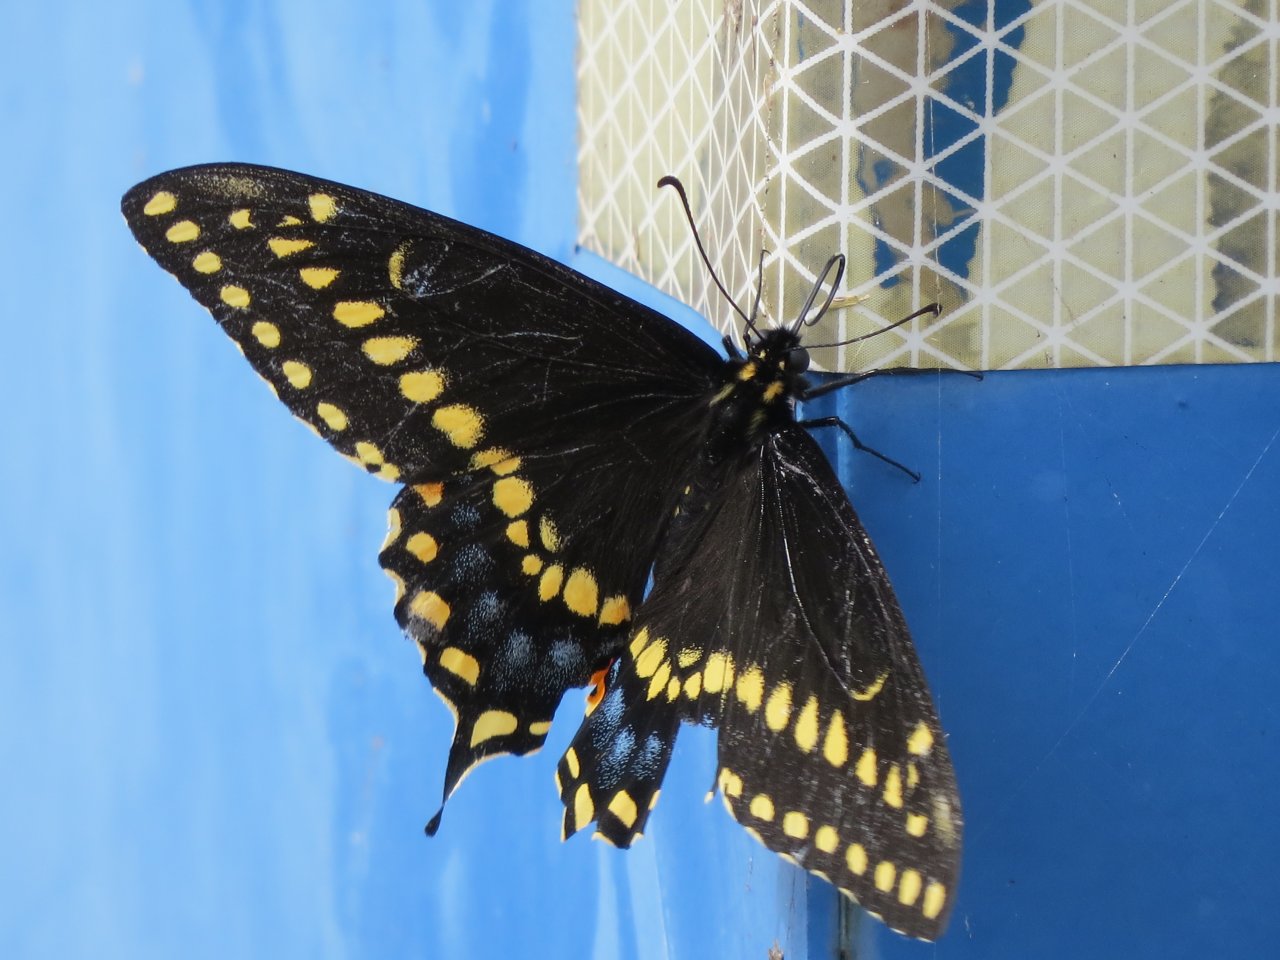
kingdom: Animalia
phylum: Arthropoda
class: Insecta
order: Lepidoptera
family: Papilionidae
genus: Papilio
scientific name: Papilio polyxenes
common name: Black Swallowtail
